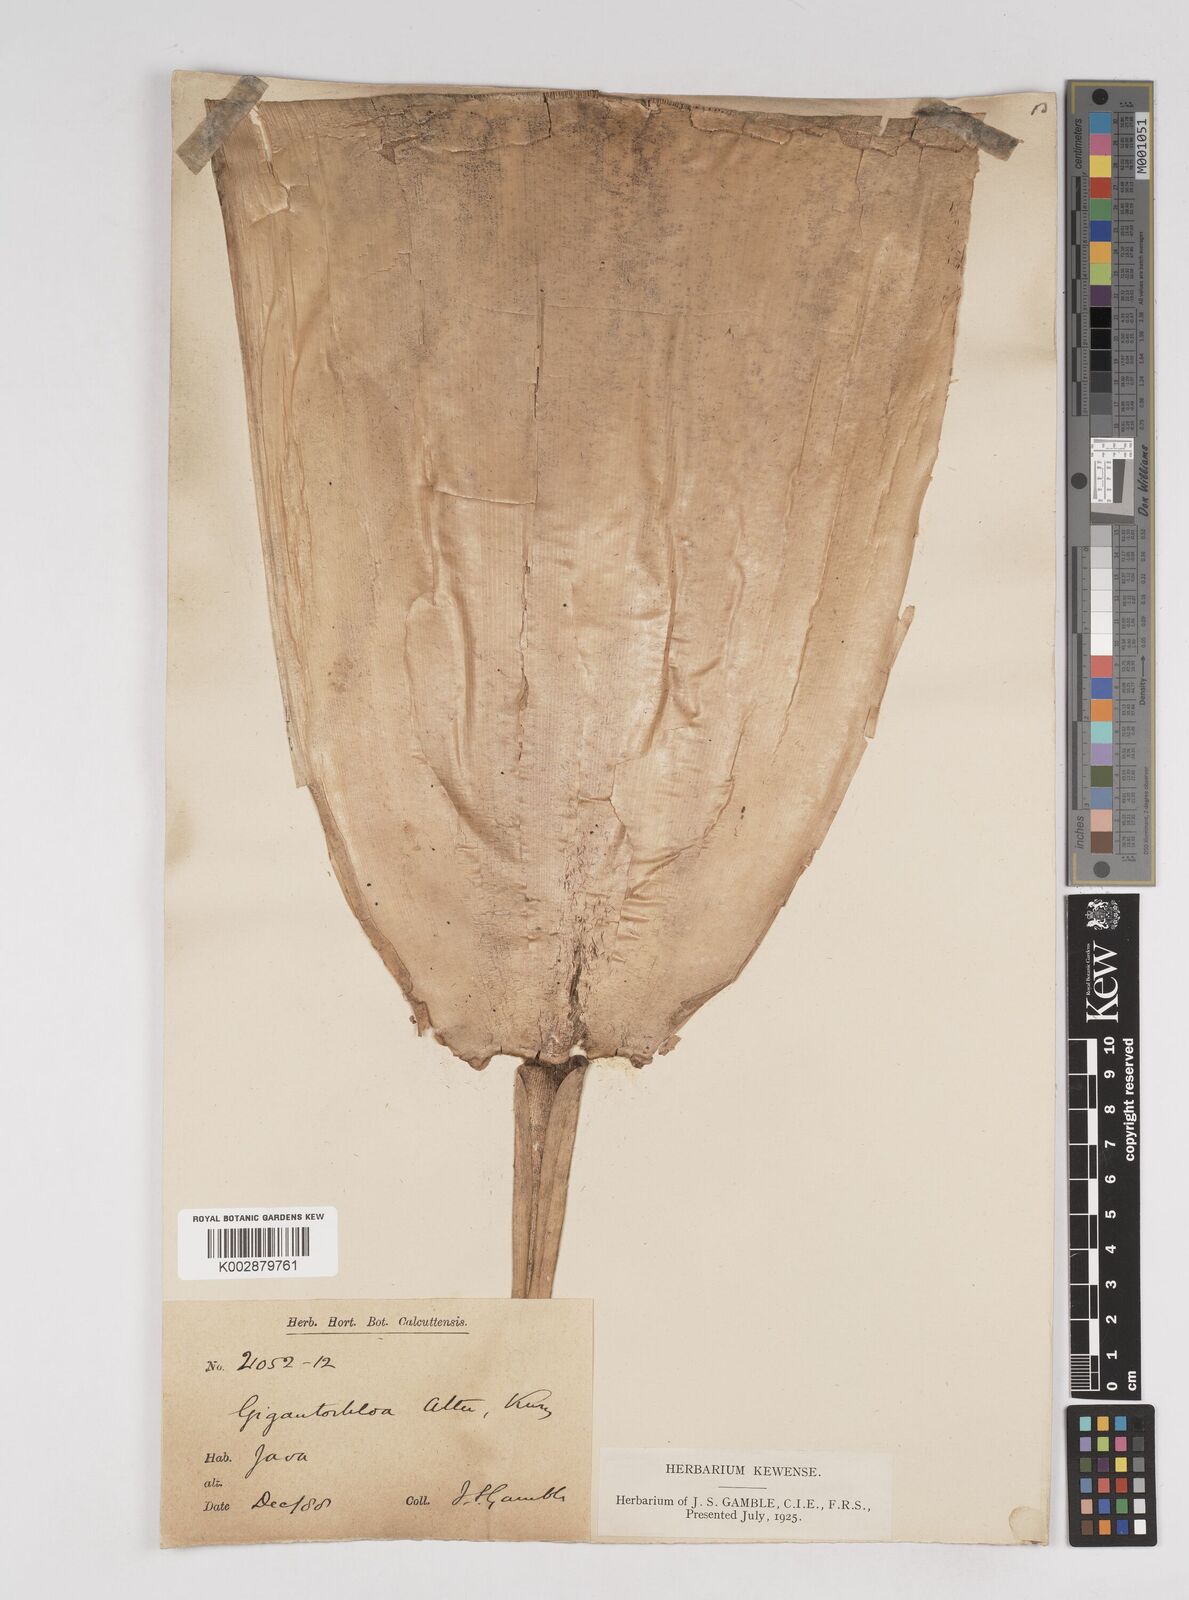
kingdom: Plantae
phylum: Tracheophyta
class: Liliopsida
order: Poales
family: Poaceae
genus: Gigantochloa
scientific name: Gigantochloa atter
